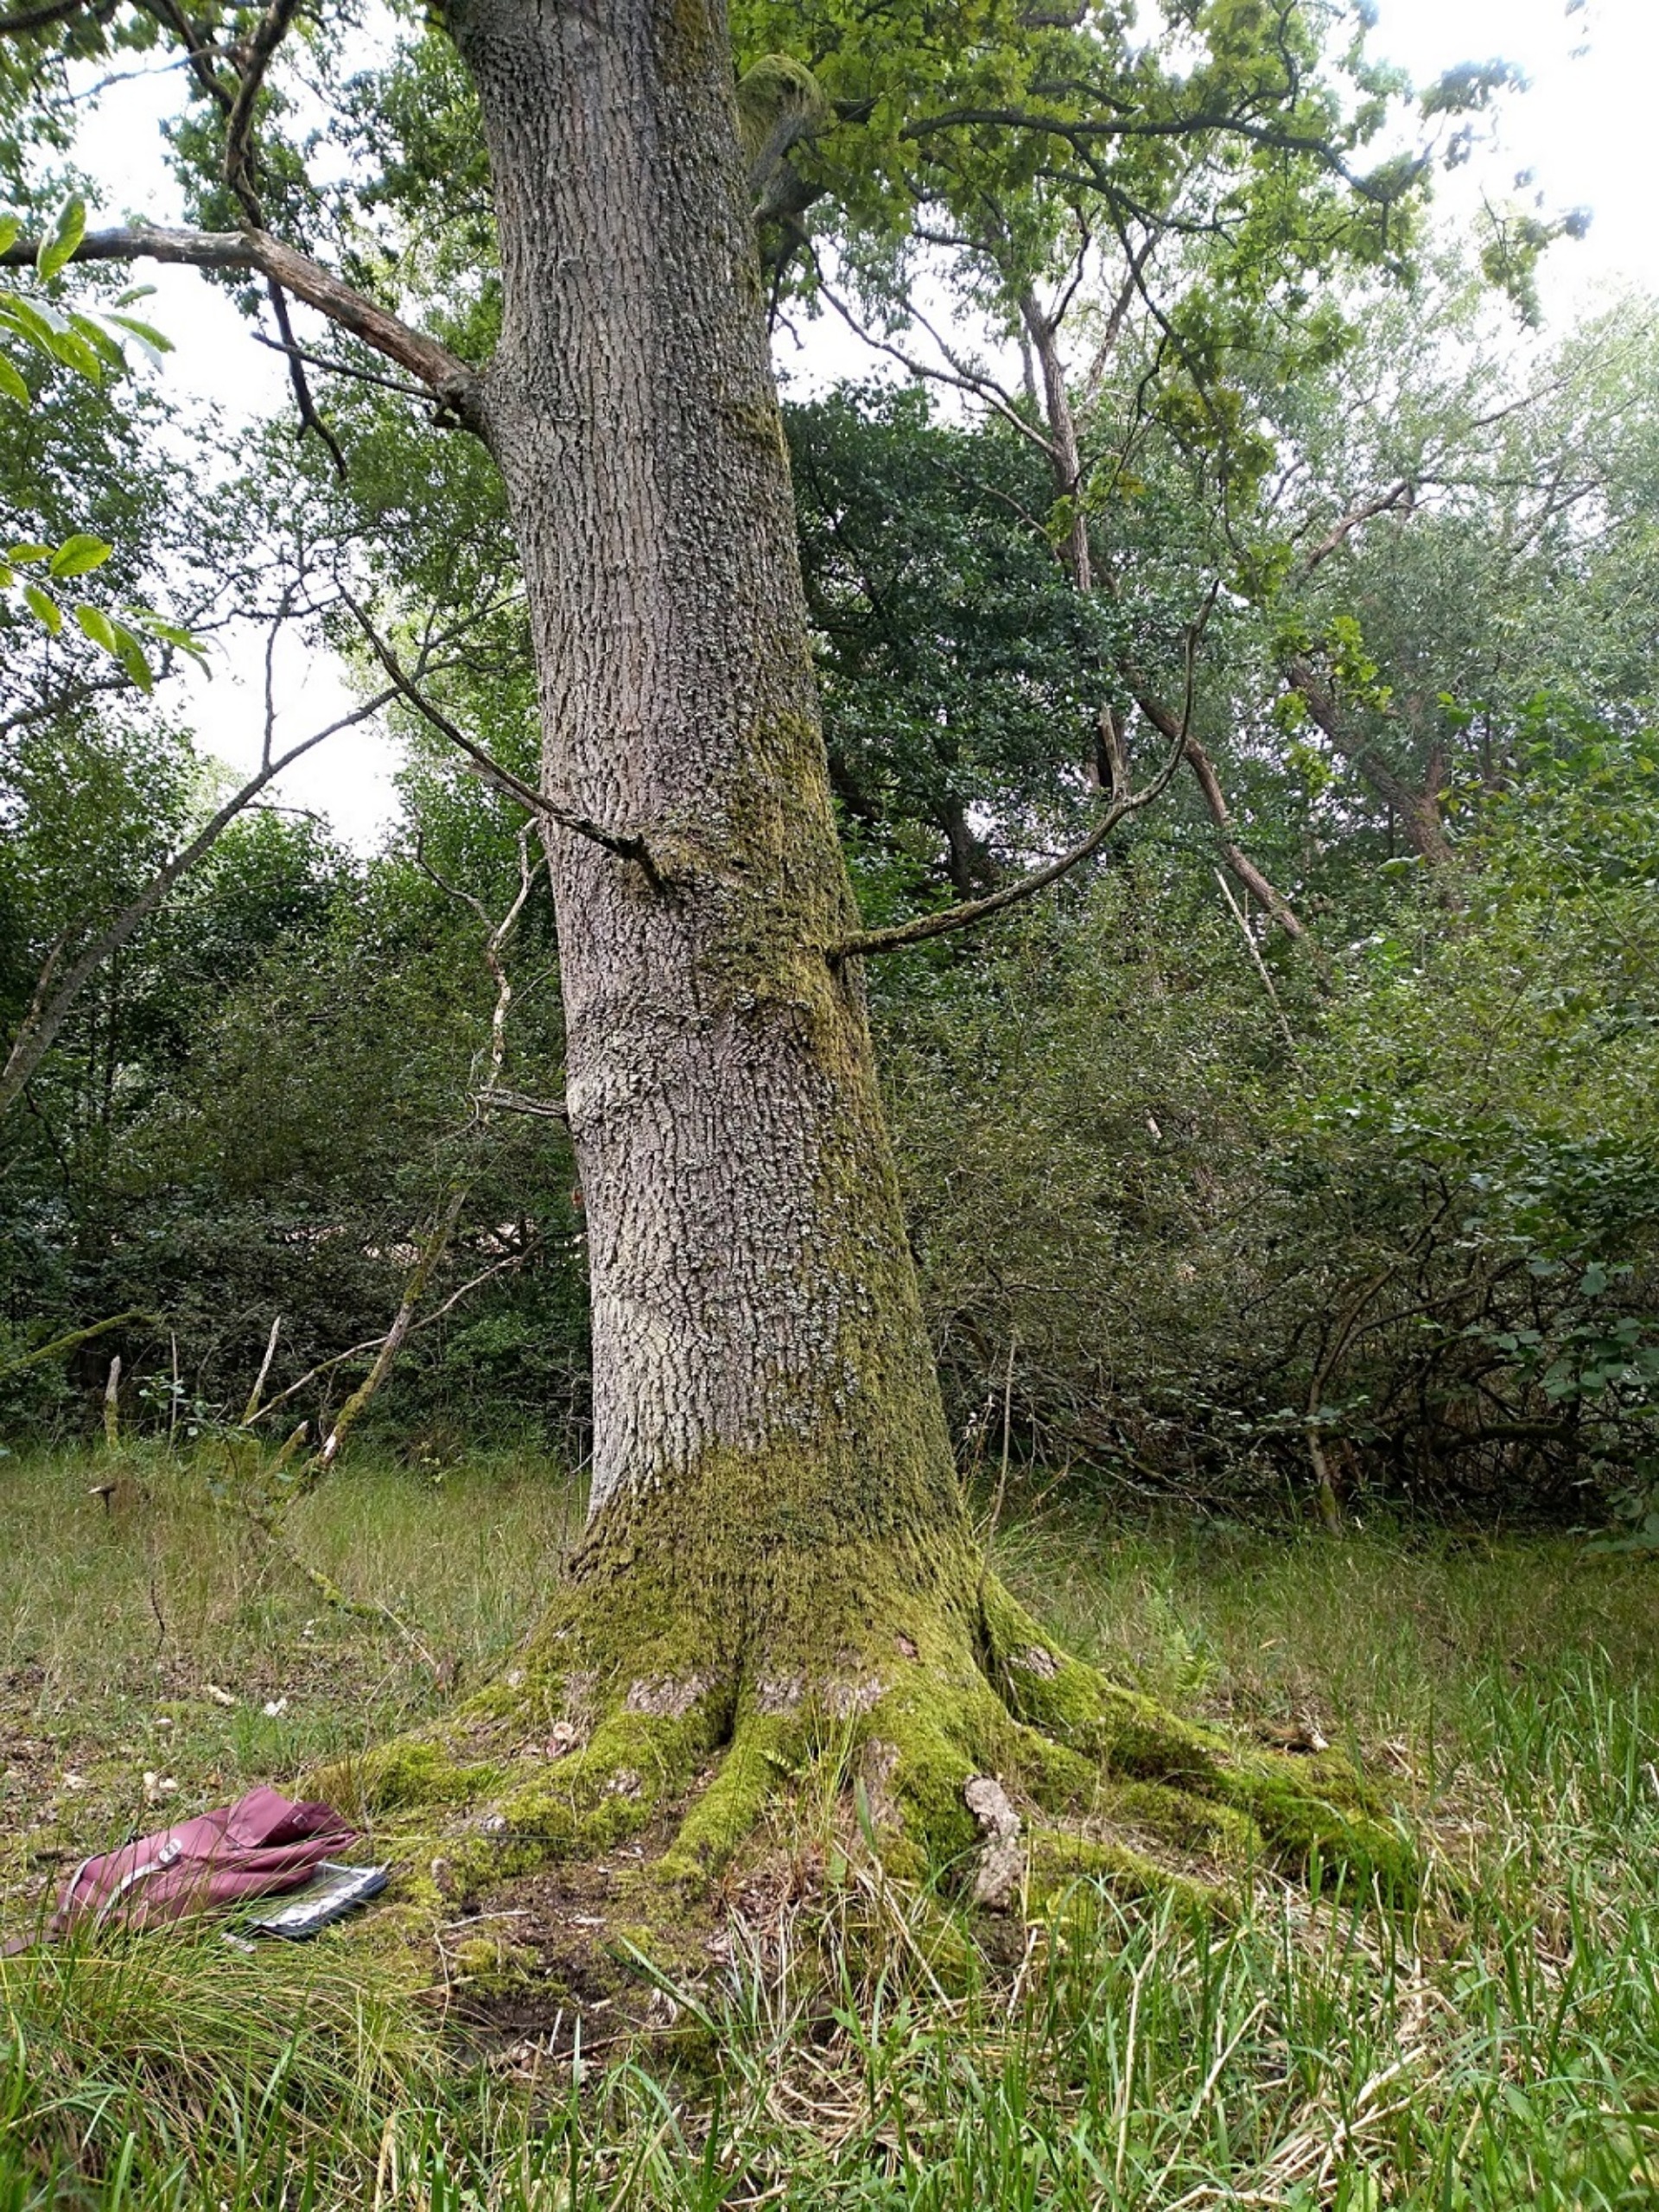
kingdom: Plantae
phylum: Bryophyta
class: Bryopsida
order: Dicranales
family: Dicranaceae
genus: Orthodicranum
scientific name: Orthodicranum tauricum
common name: Skør tyndvinge
